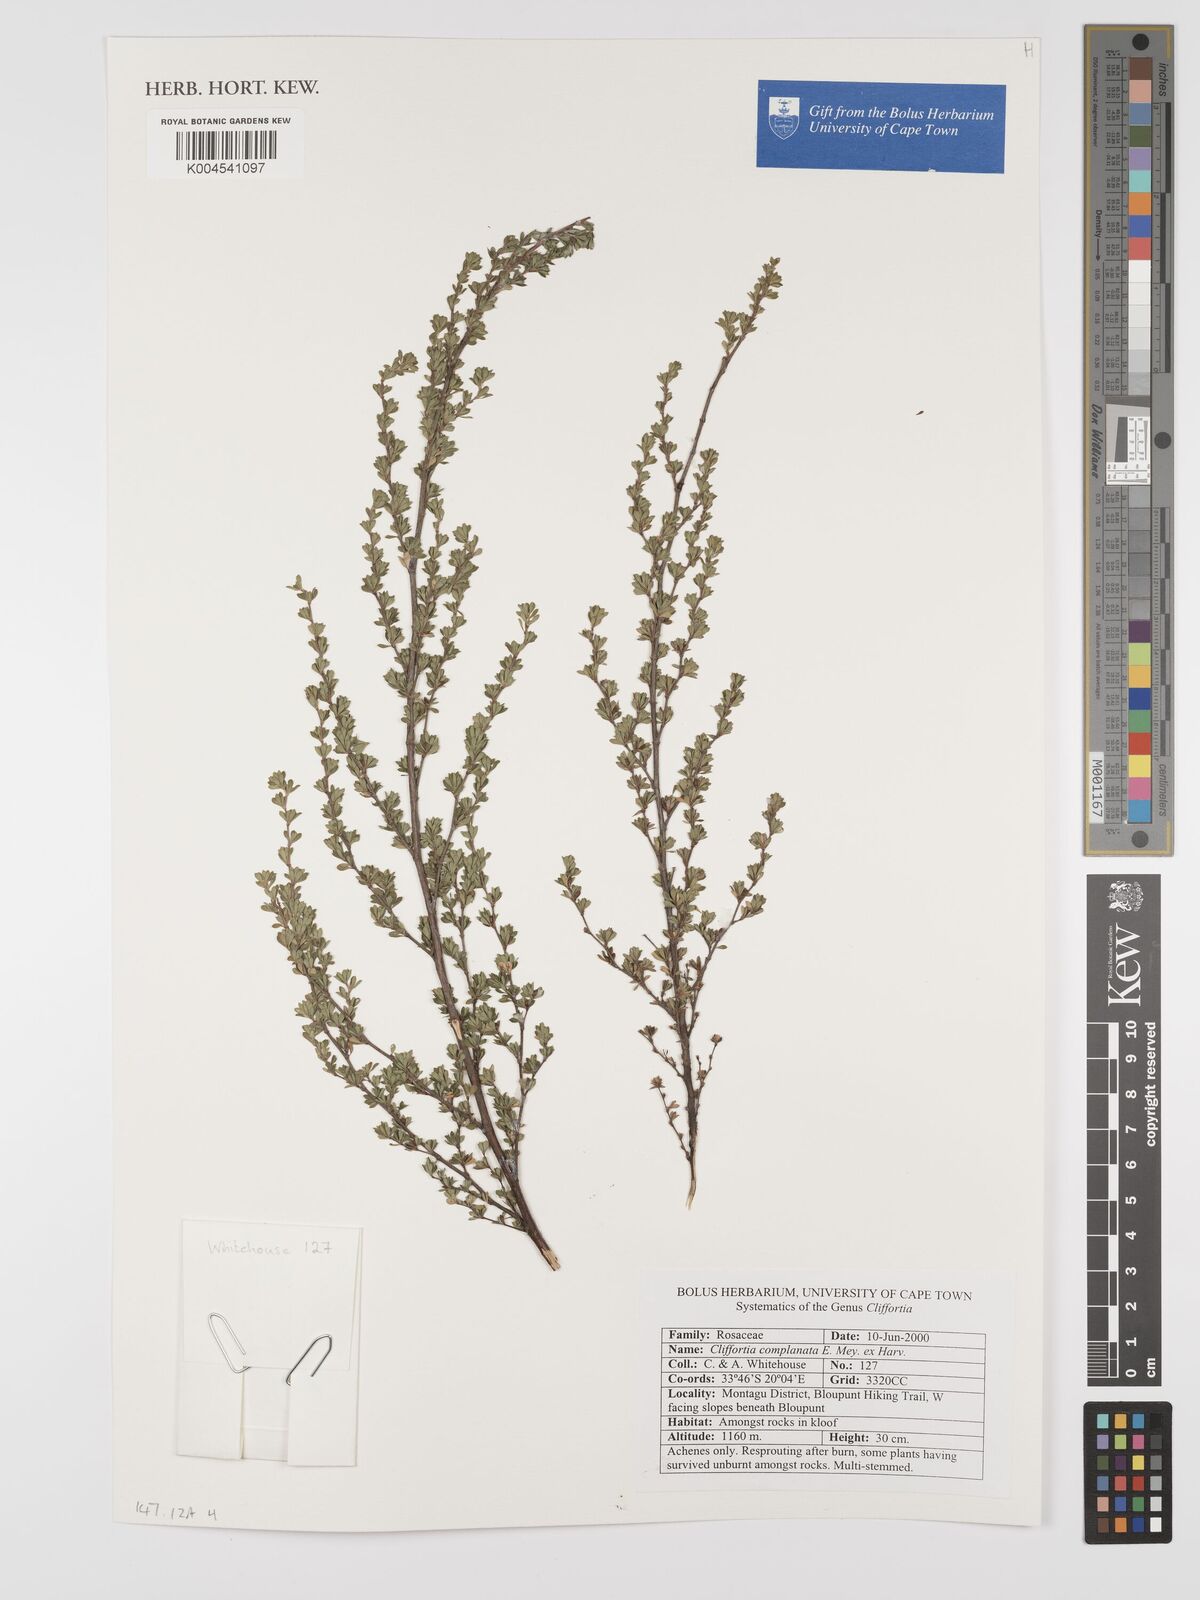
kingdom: Plantae
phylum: Tracheophyta
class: Magnoliopsida
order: Rosales
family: Rosaceae
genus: Cliffortia
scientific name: Cliffortia complanata
